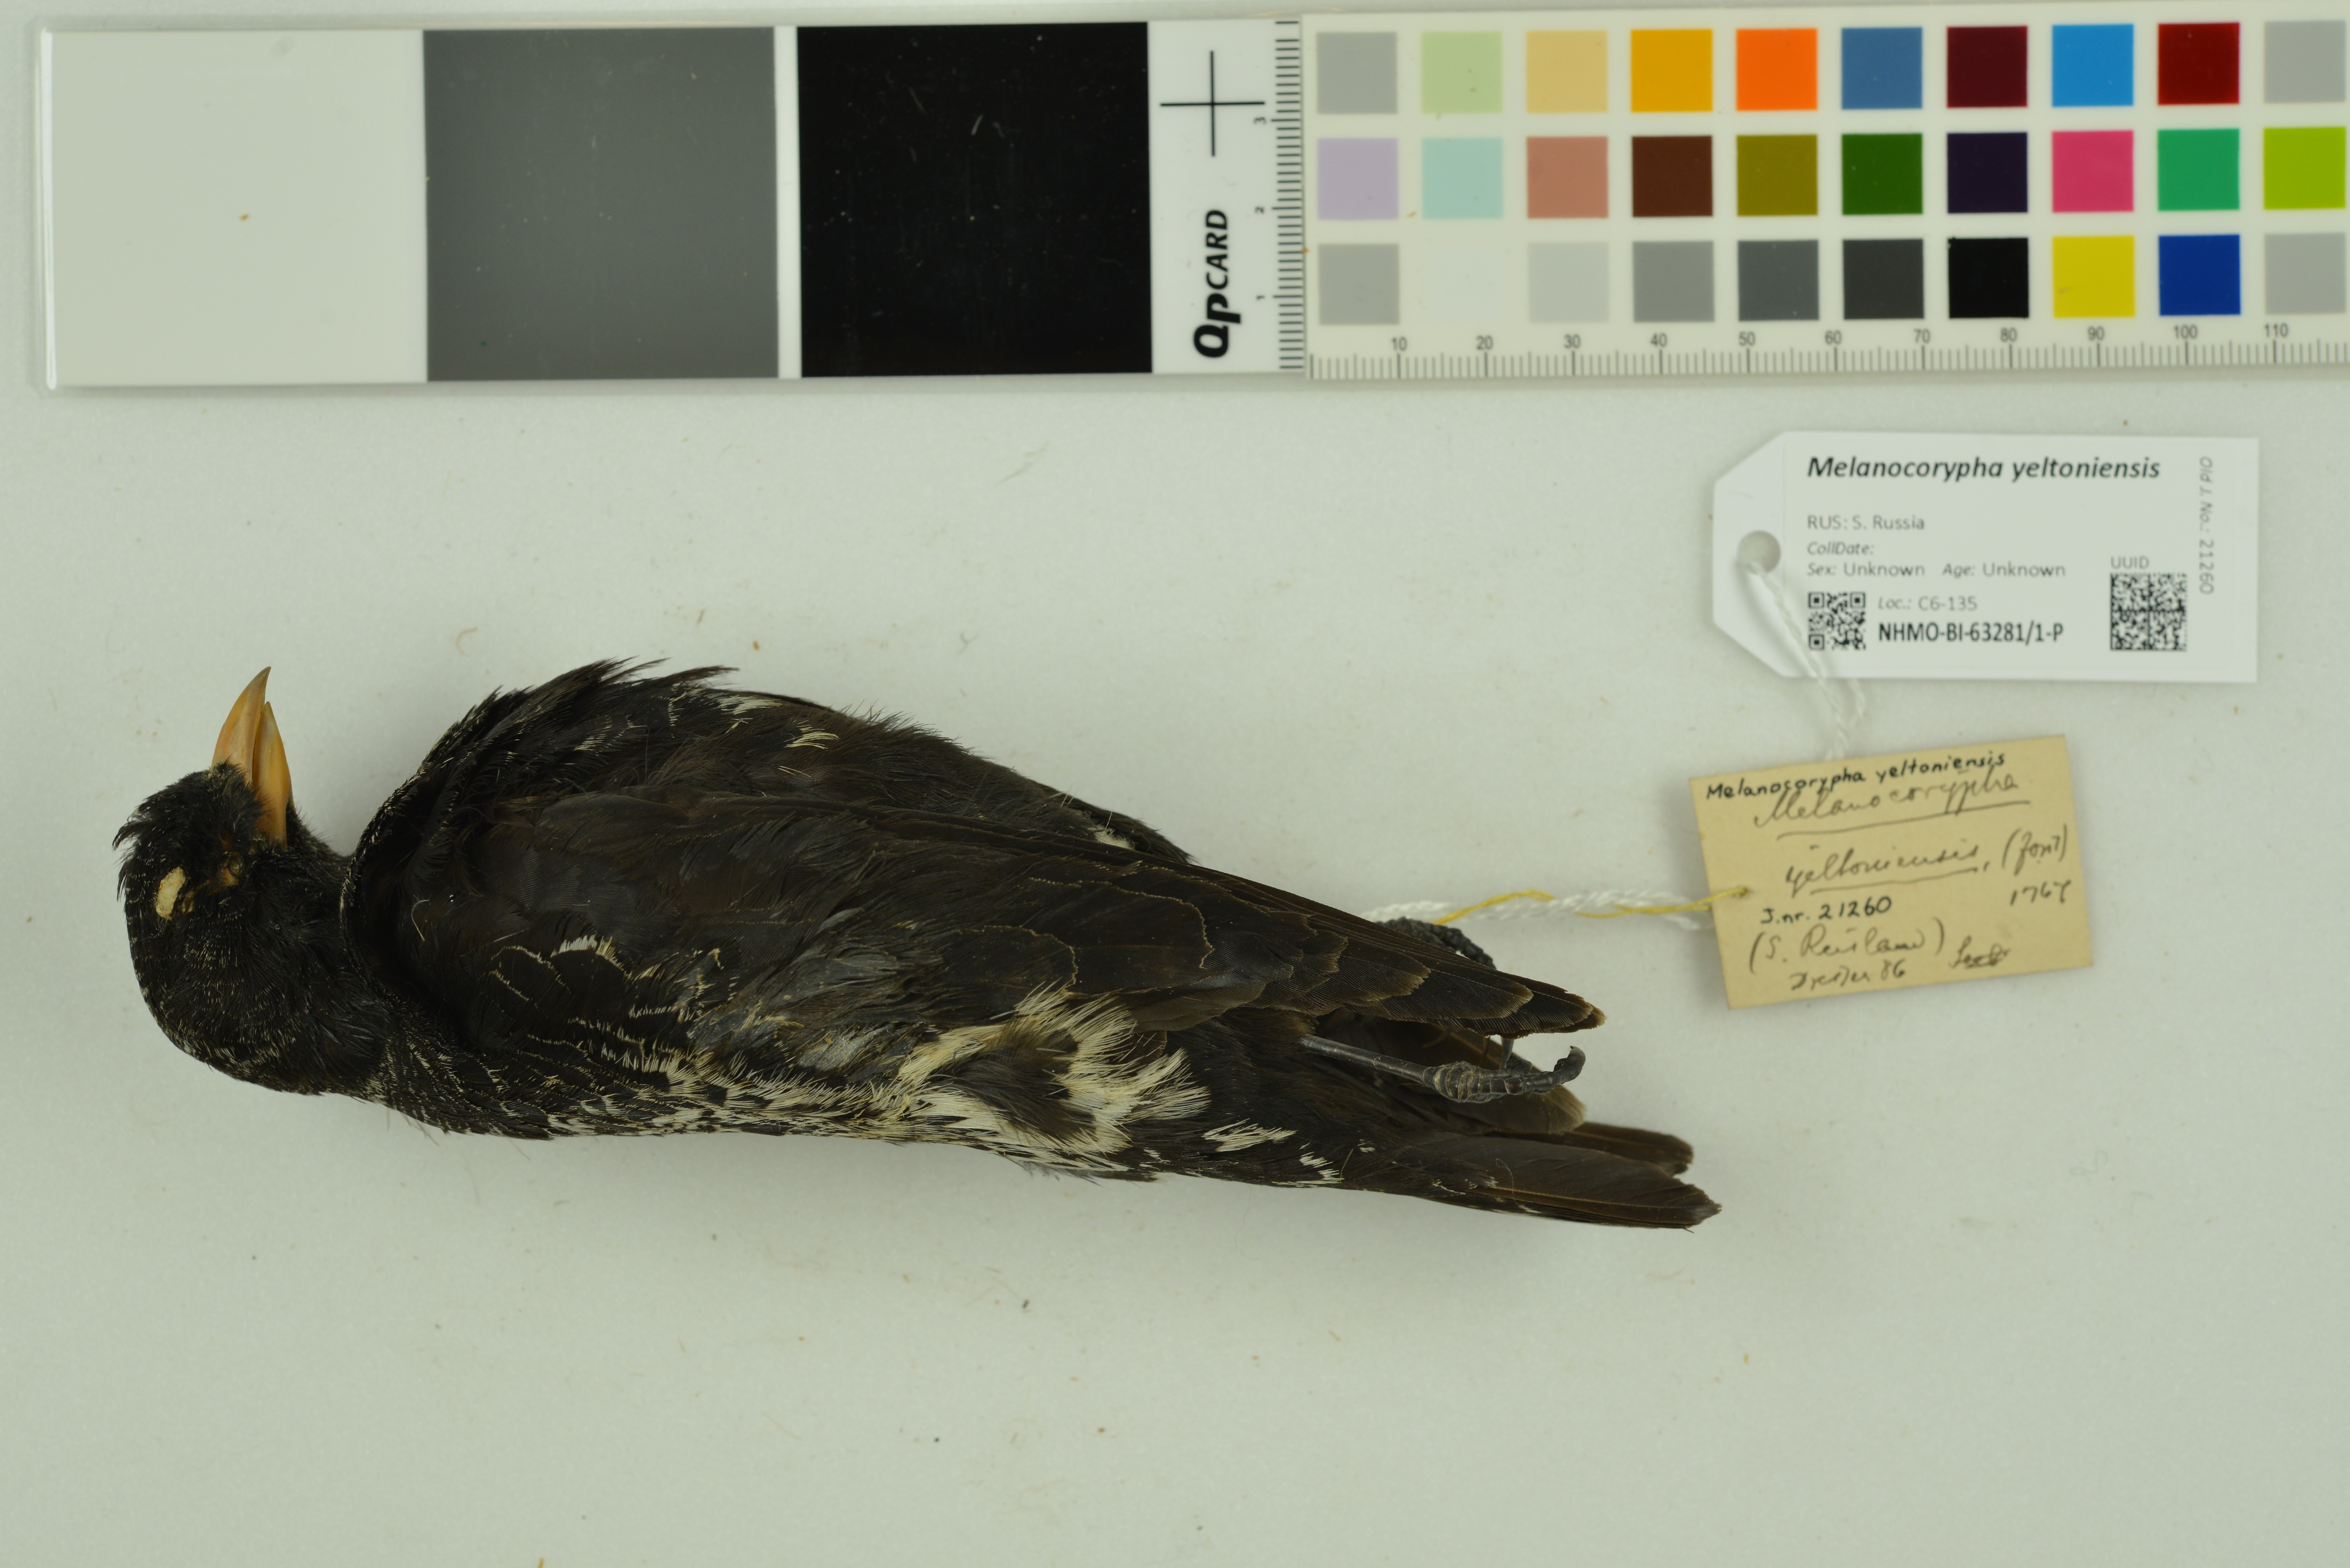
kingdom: Animalia
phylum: Chordata
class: Aves
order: Passeriformes
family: Alaudidae
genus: Melanocorypha
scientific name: Melanocorypha yeltoniensis
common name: Black lark
